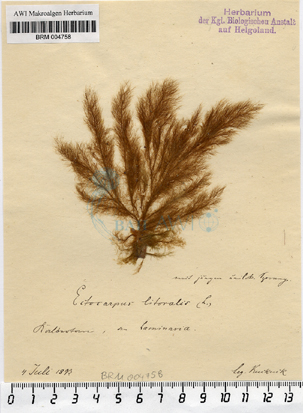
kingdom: Chromista
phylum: Ochrophyta
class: Phaeophyceae
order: Ectocarpales
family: Acinetosporaceae
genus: Pylaiella
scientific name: Pylaiella littoralis
